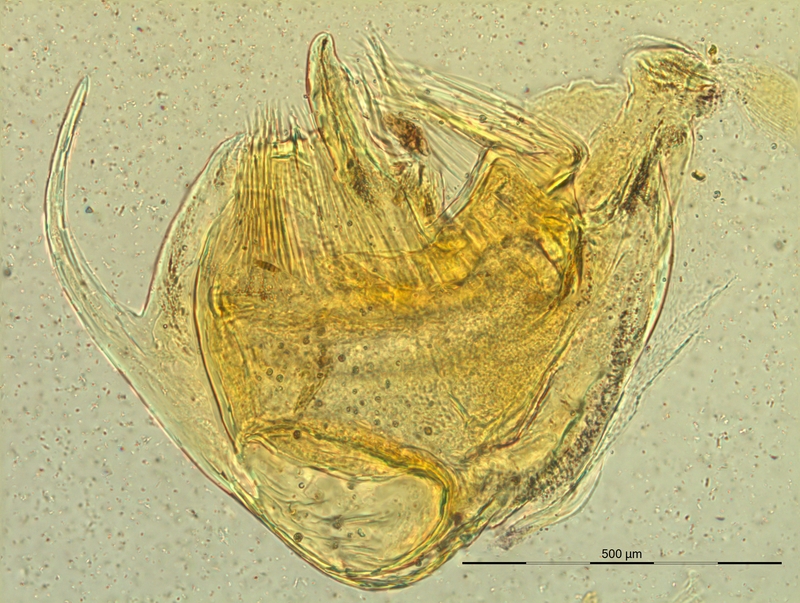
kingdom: Animalia
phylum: Arthropoda
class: Diplopoda
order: Chordeumatida
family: Craspedosomatidae
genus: Pyrgocyphosoma
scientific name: Pyrgocyphosoma titianum
